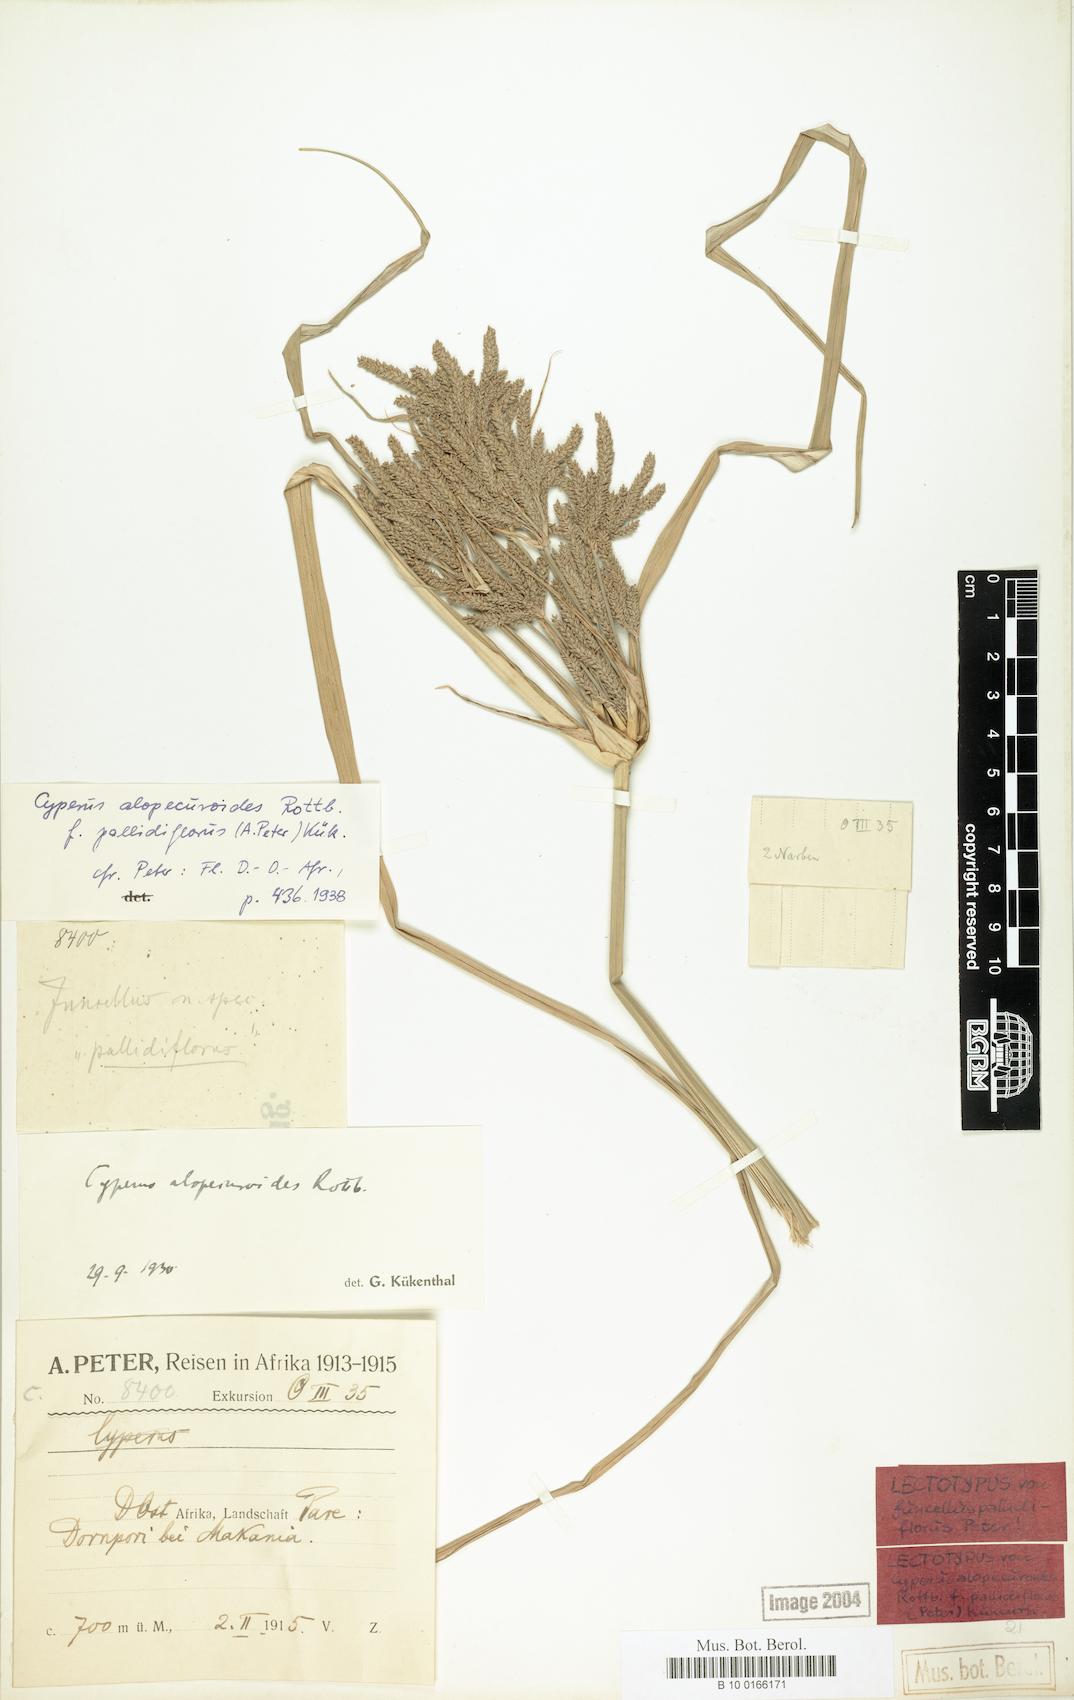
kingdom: Plantae
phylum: Tracheophyta
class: Liliopsida
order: Poales
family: Cyperaceae
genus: Cyperus
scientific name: Cyperus alopecuroides
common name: Foxtail flatsedge
